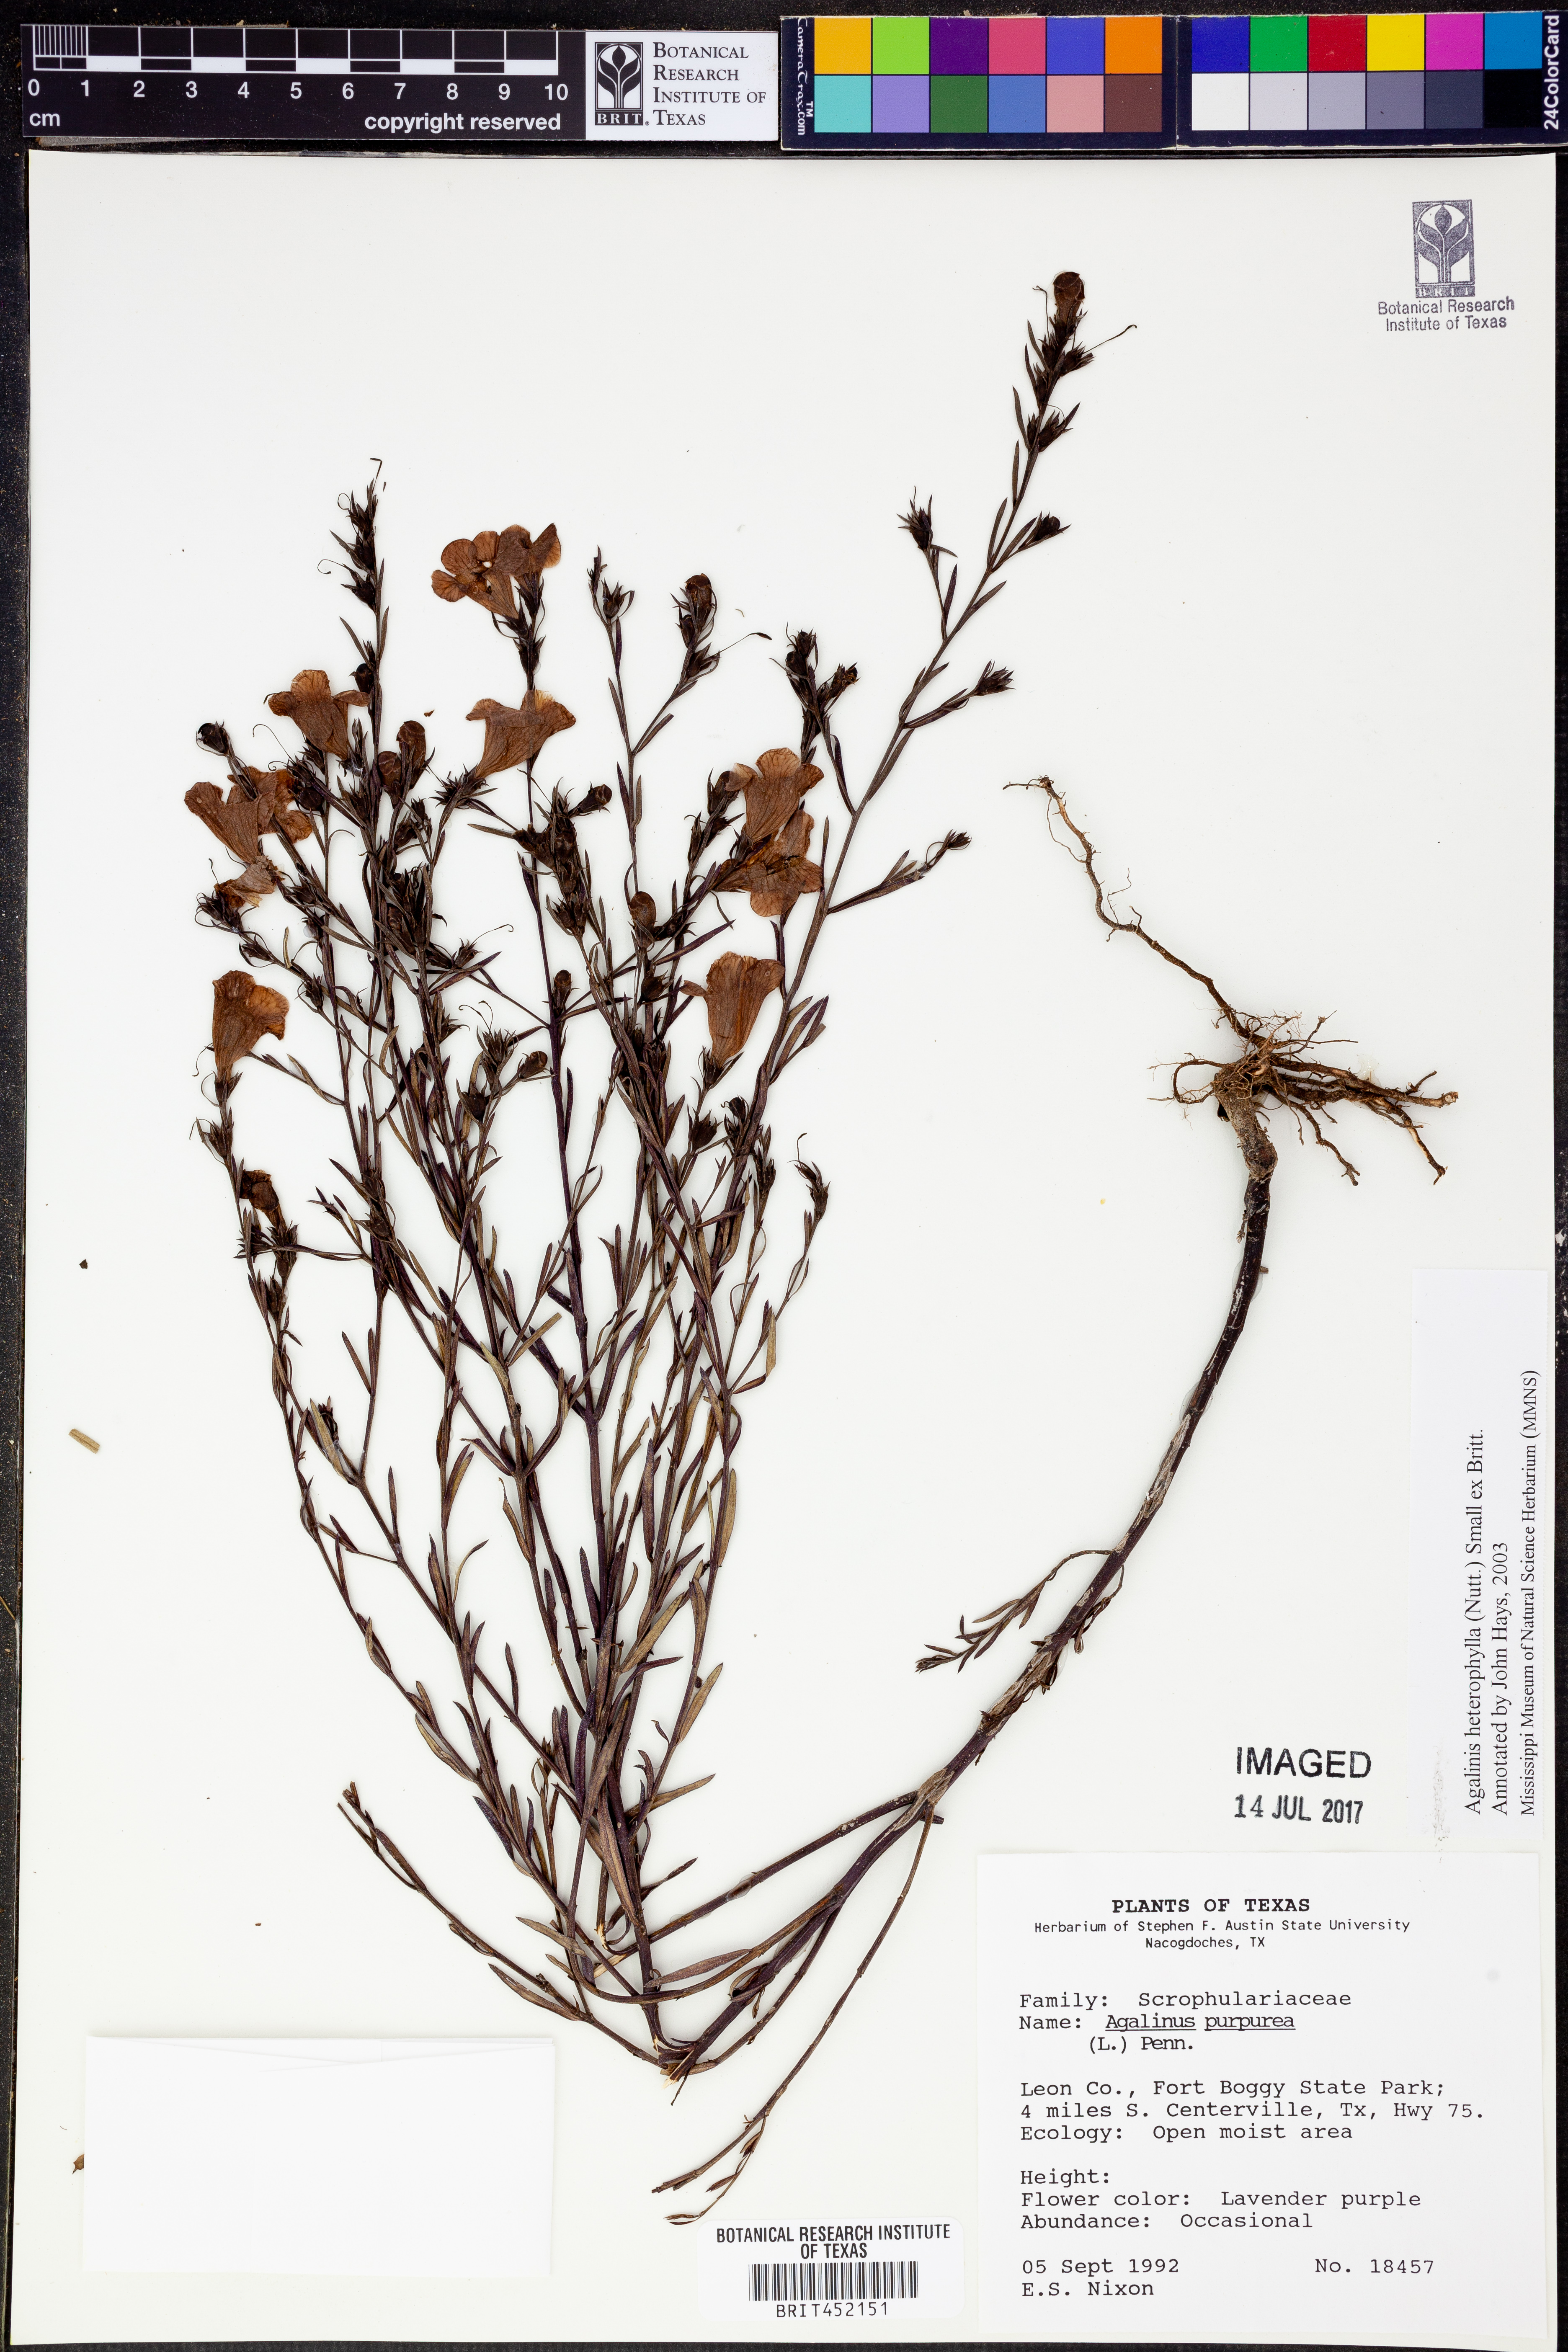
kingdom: Plantae
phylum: Tracheophyta
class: Magnoliopsida
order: Lamiales
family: Orobanchaceae
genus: Agalinis
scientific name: Agalinis heterophylla
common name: Prairie agalinis
